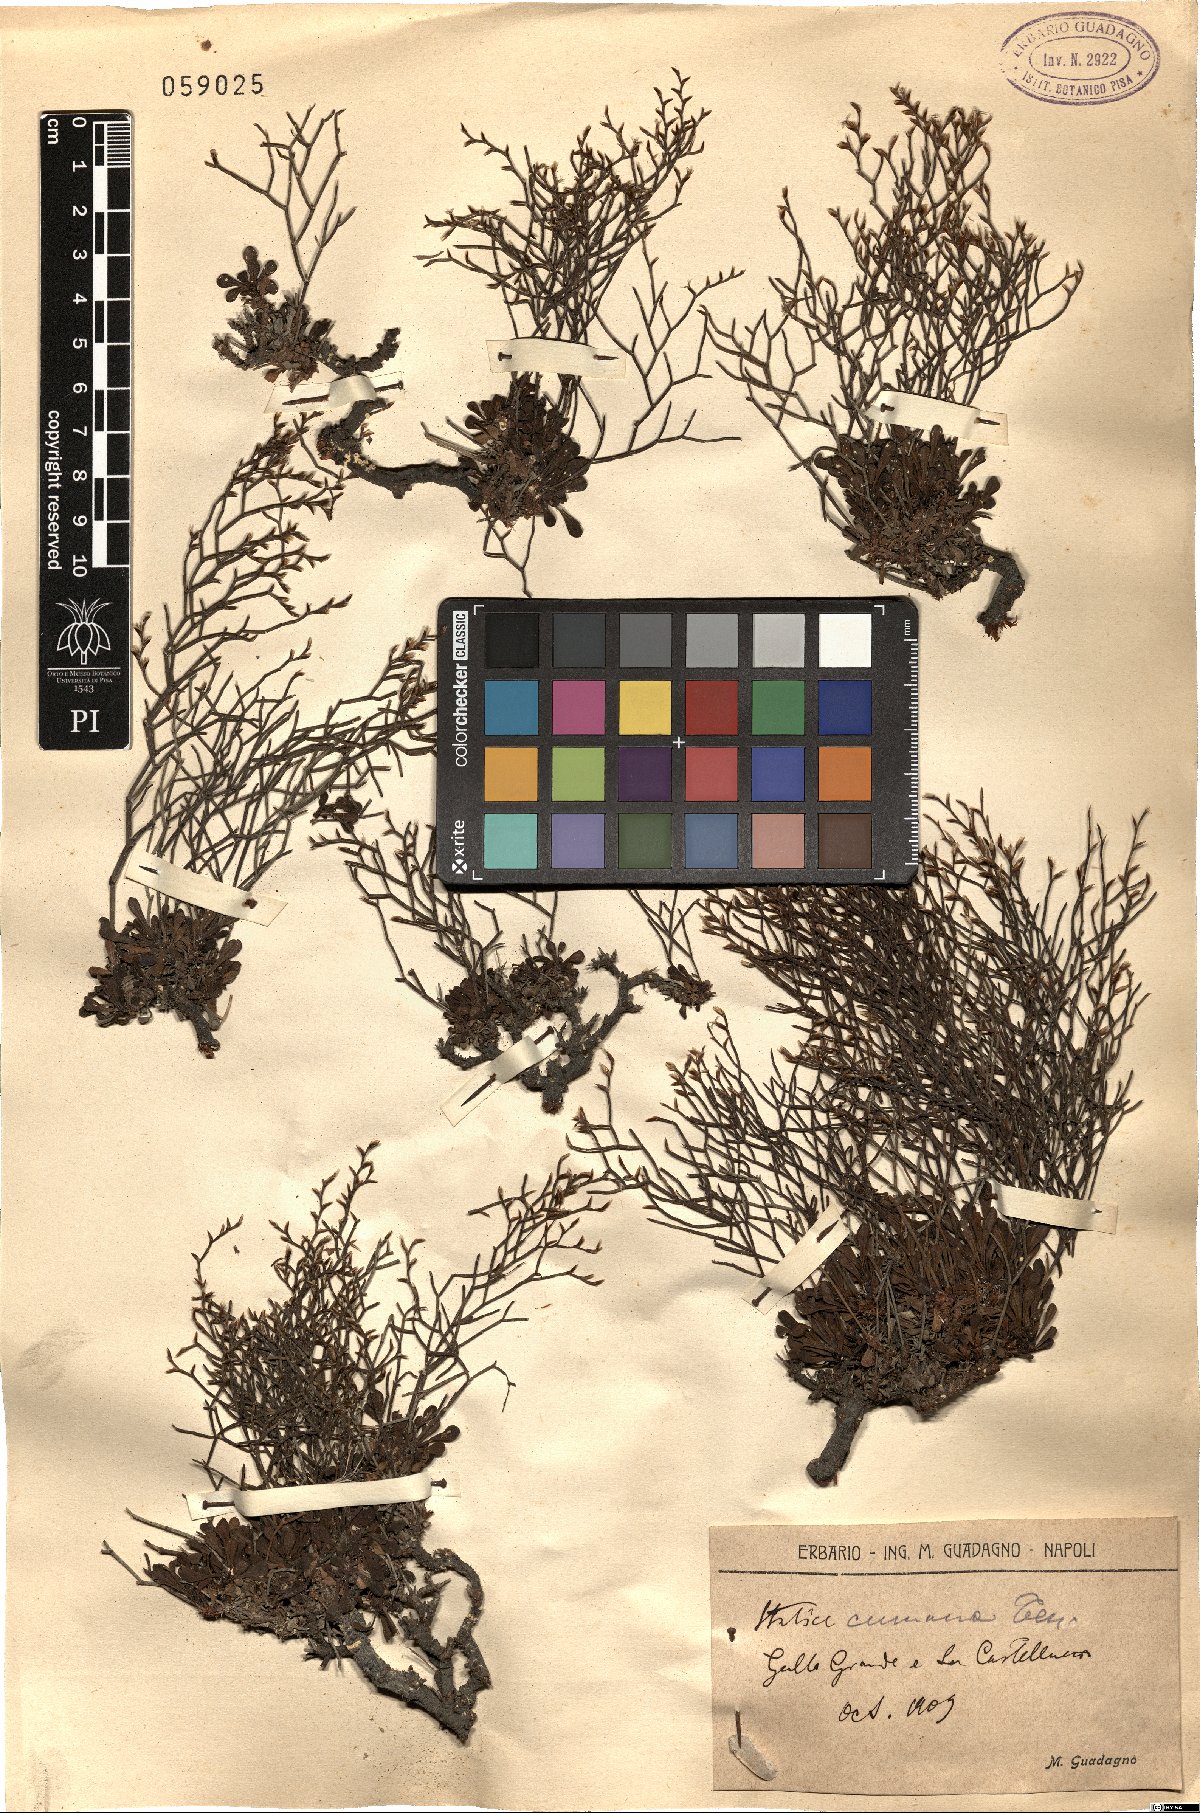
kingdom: Plantae
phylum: Tracheophyta
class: Magnoliopsida
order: Caryophyllales
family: Plumbaginaceae
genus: Limonium
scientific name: Limonium cumanum
